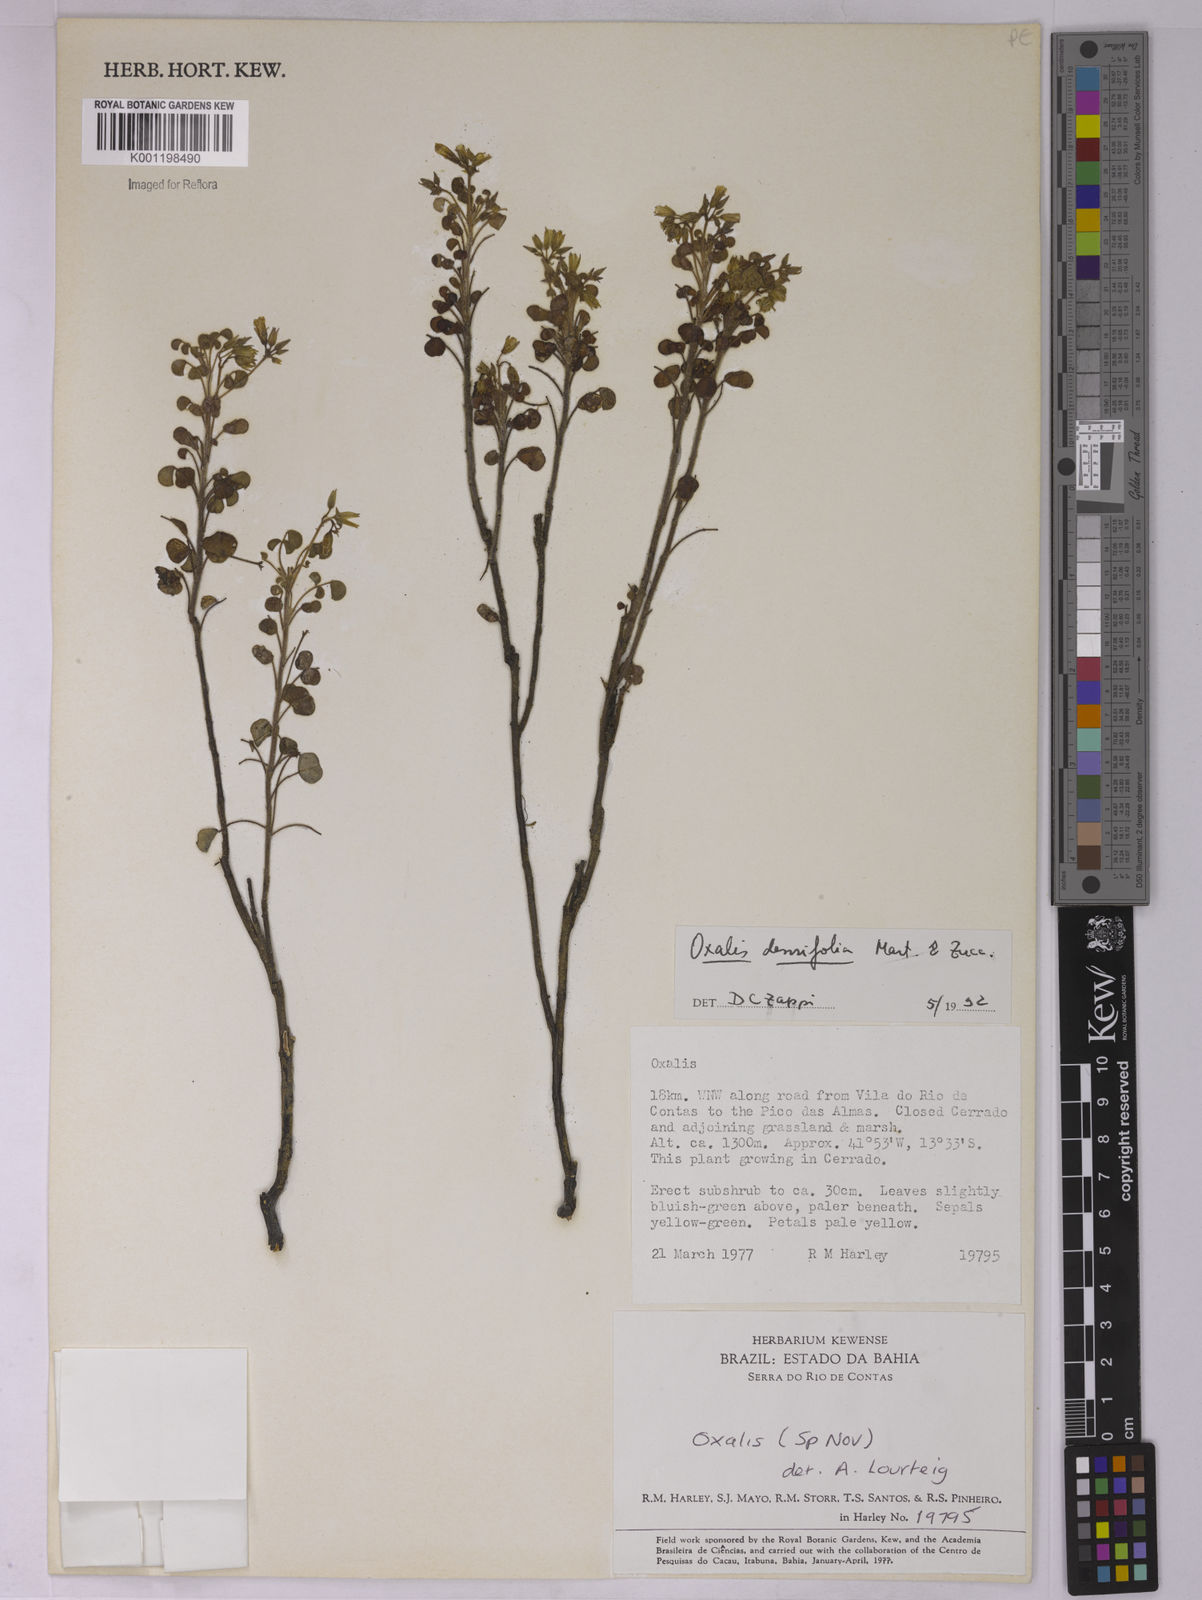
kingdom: Plantae
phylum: Tracheophyta
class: Magnoliopsida
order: Oxalidales
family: Oxalidaceae
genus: Oxalis
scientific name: Oxalis cerradoana
